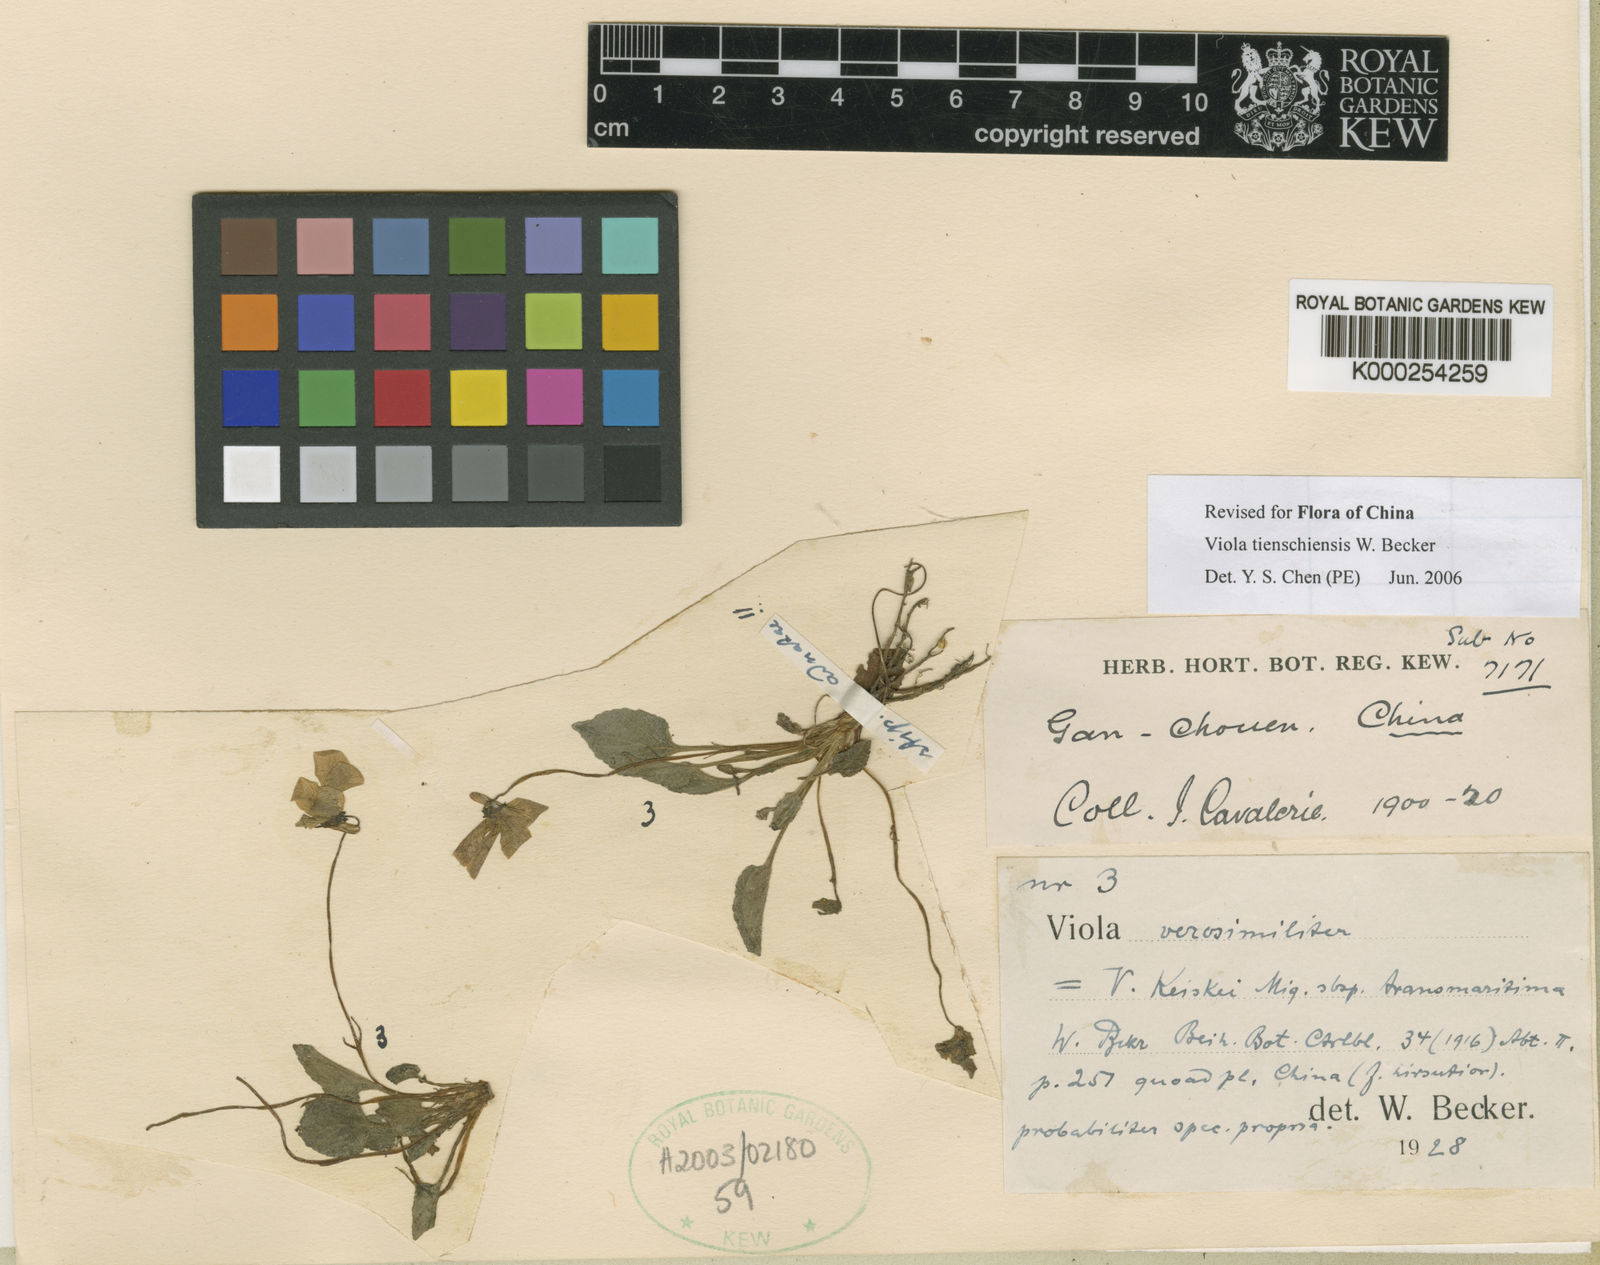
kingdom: Plantae
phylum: Tracheophyta
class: Magnoliopsida
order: Malpighiales
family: Violaceae
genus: Viola
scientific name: Viola fargesii
